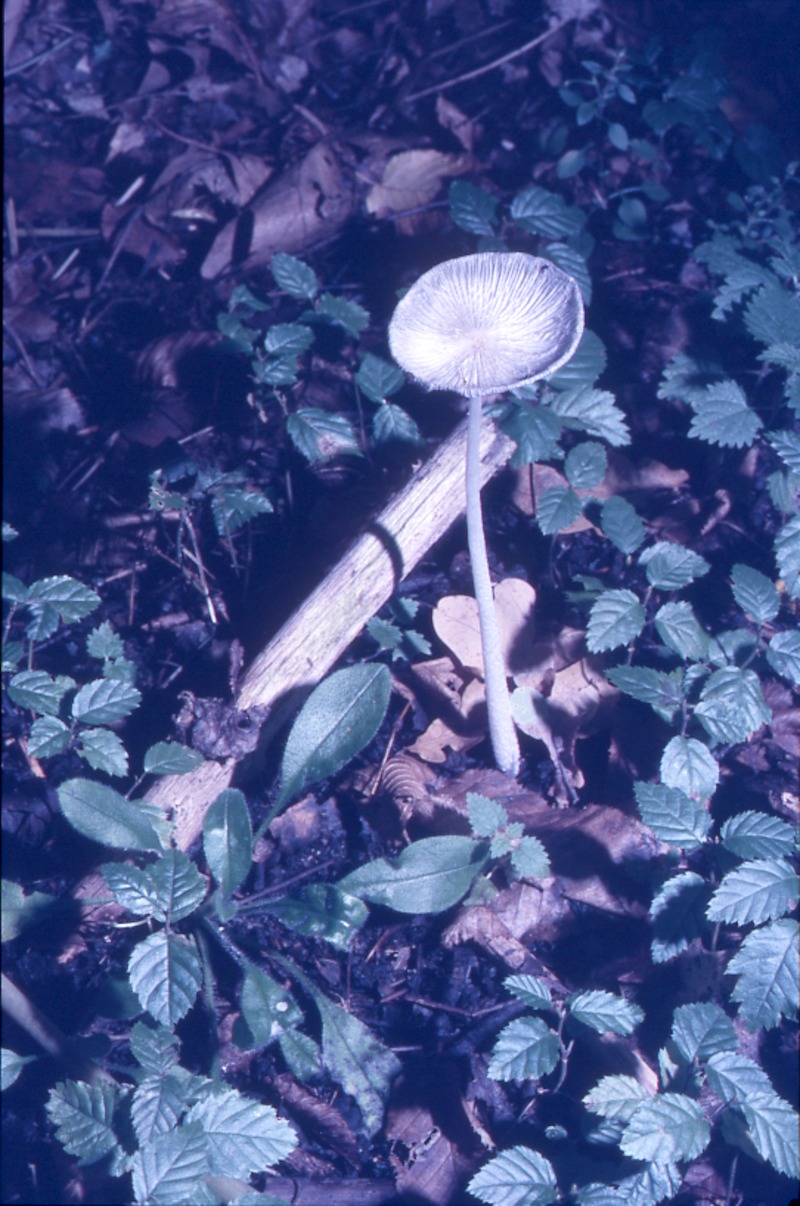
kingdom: Fungi
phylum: Basidiomycota
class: Agaricomycetes
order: Agaricales
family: Psathyrellaceae
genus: Coprinopsis
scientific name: Coprinopsis lagopus
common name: Hare'sfoot inkcap
